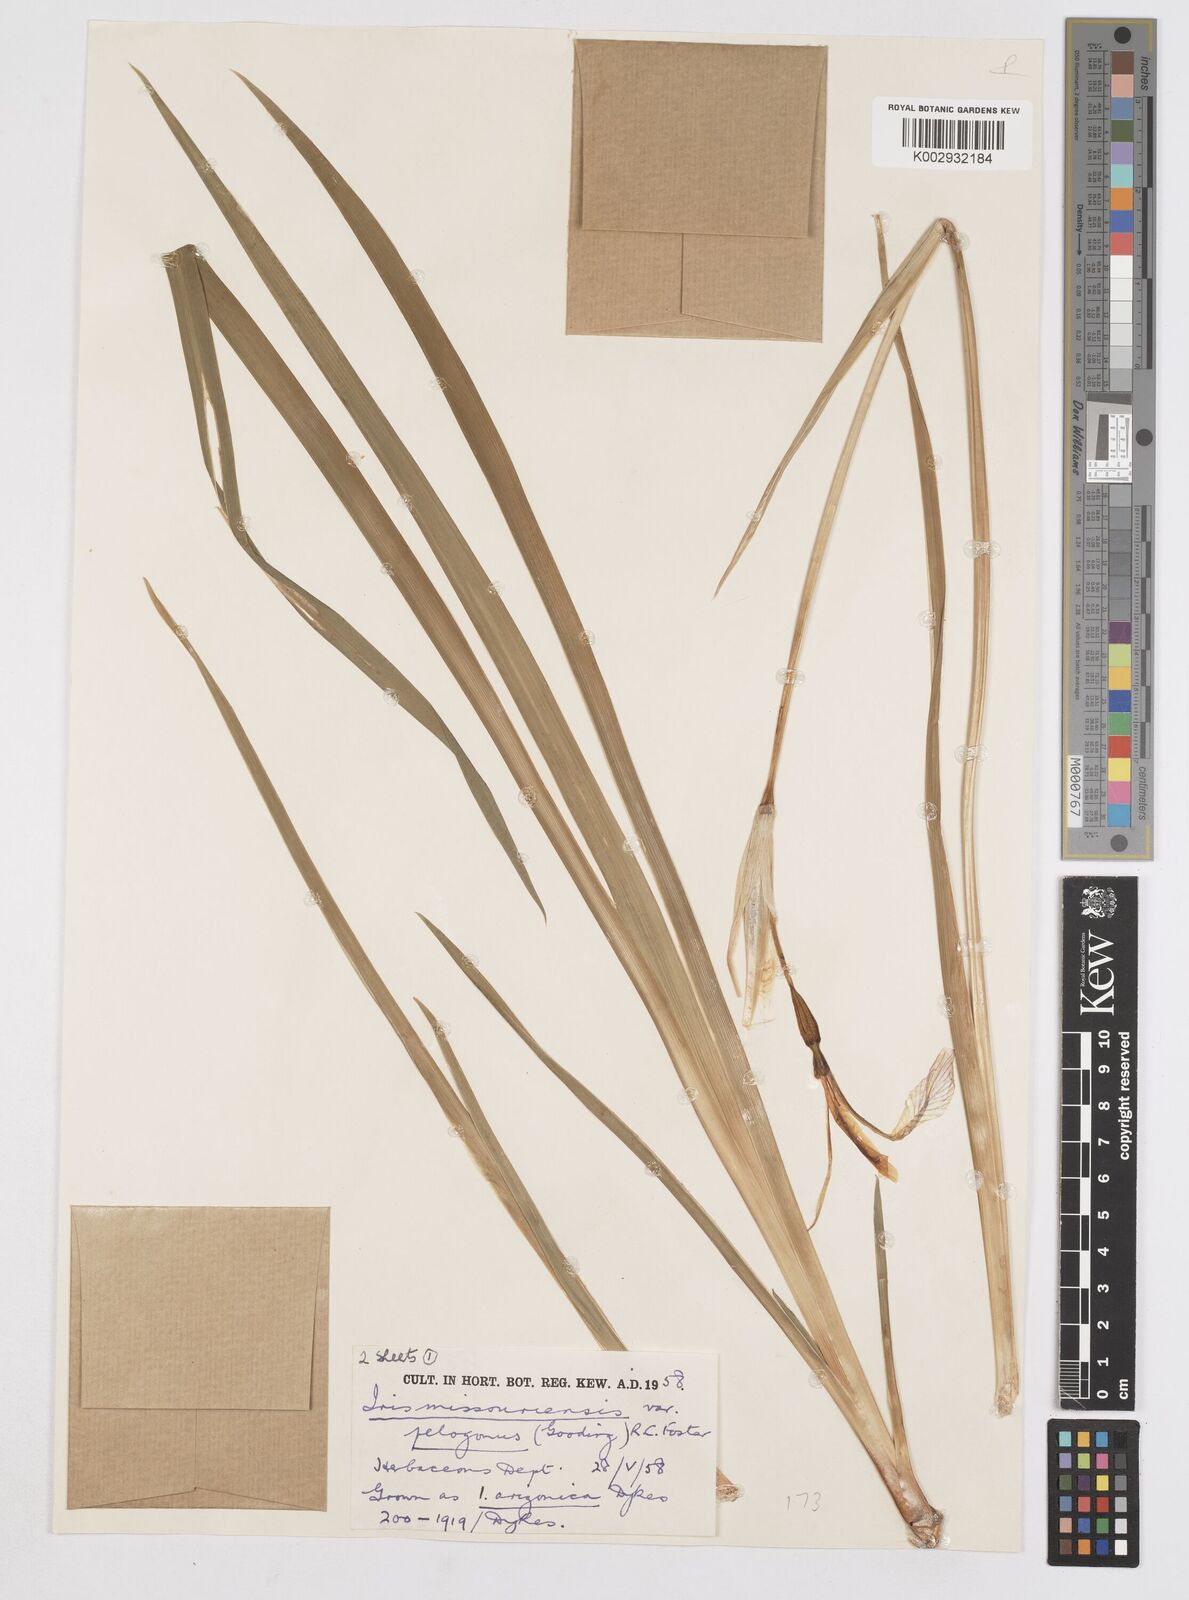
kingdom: Plantae
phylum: Tracheophyta
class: Liliopsida
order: Asparagales
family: Iridaceae
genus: Iris
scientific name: Iris missouriensis
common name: Rocky mountain iris
